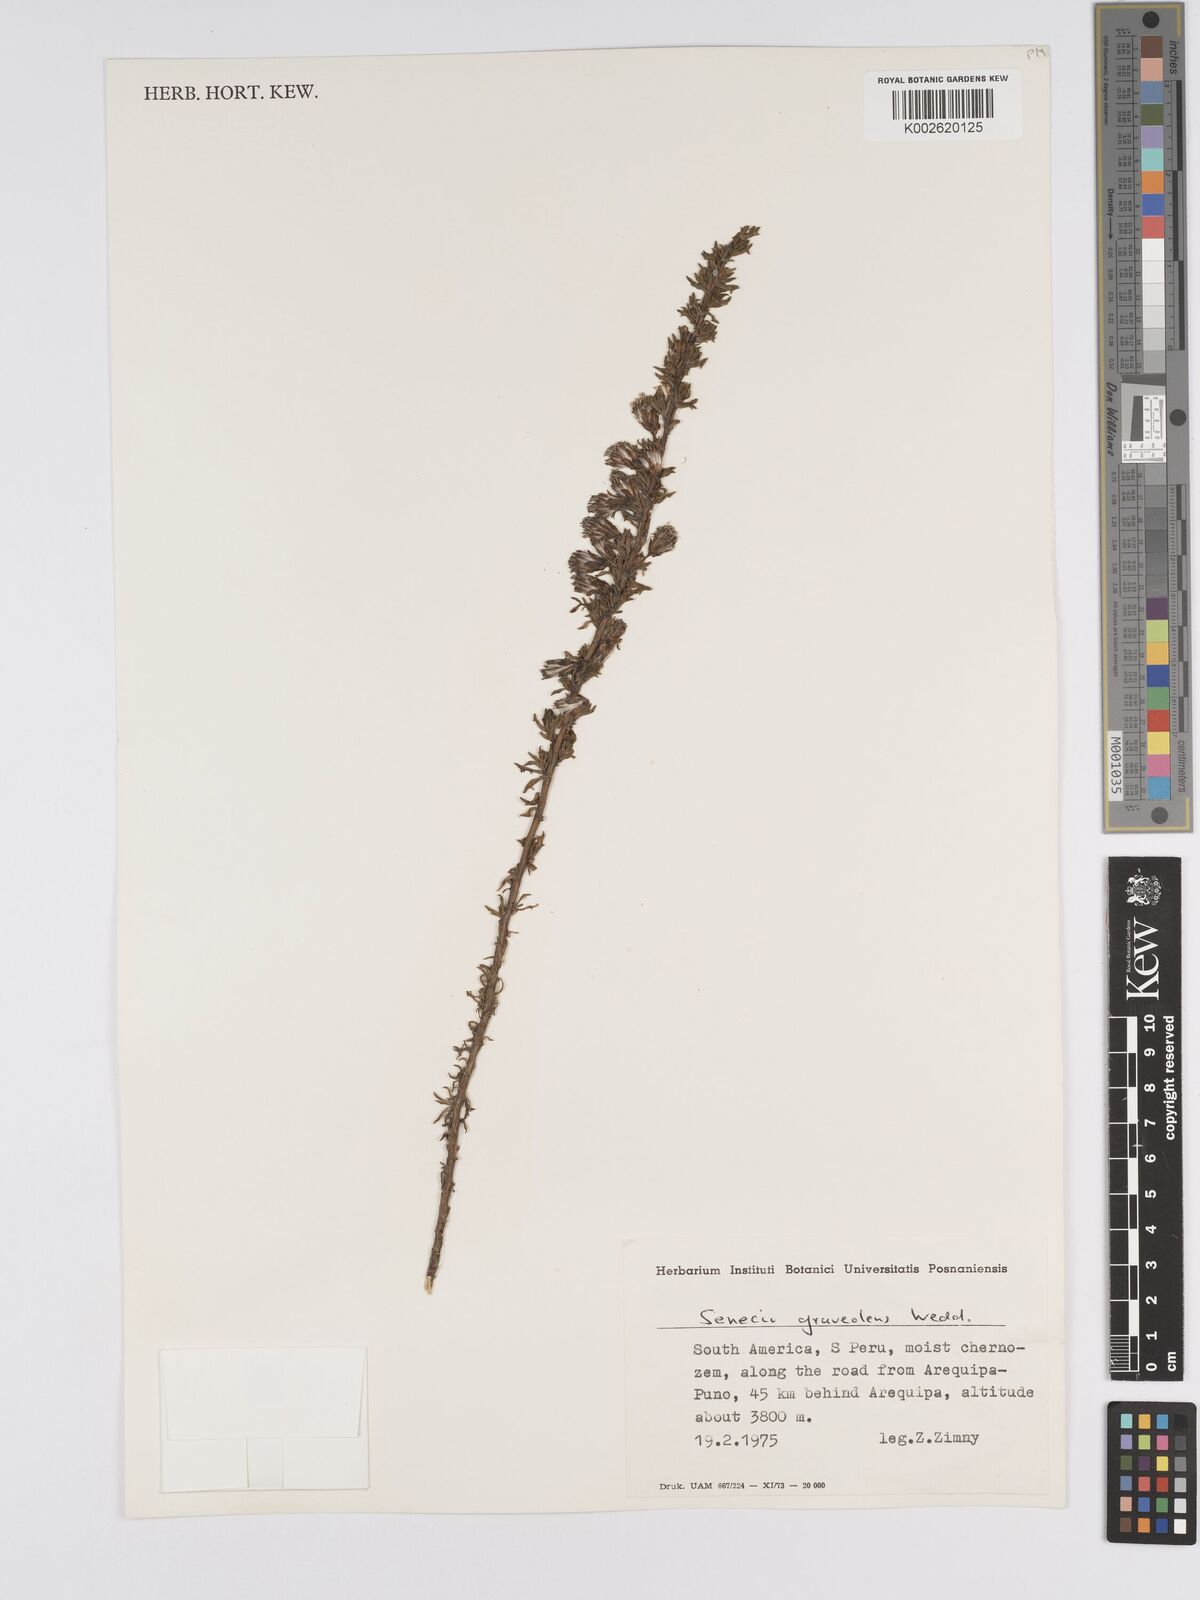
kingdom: Plantae
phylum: Tracheophyta
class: Magnoliopsida
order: Asterales
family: Asteraceae
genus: Senecio
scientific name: Senecio nutans
